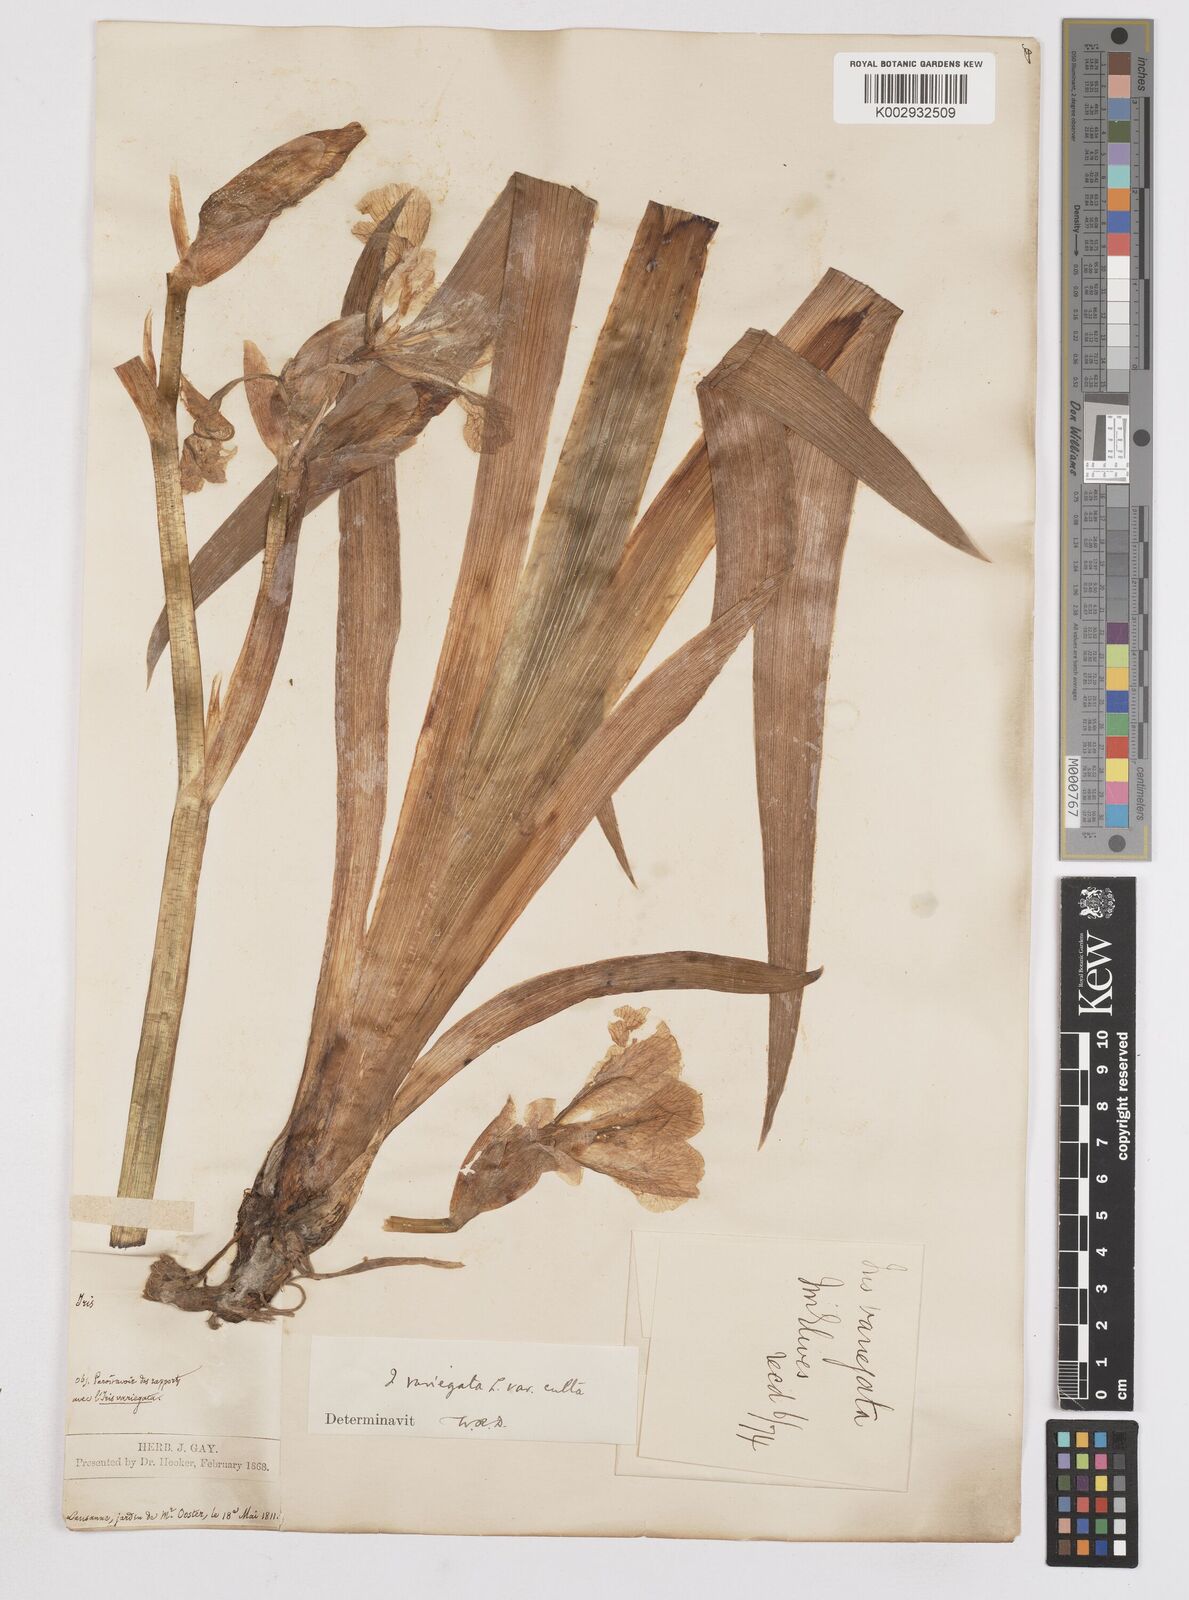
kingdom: Plantae
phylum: Tracheophyta
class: Liliopsida
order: Asparagales
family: Iridaceae
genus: Iris
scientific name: Iris variegata
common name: Hungarian iris
